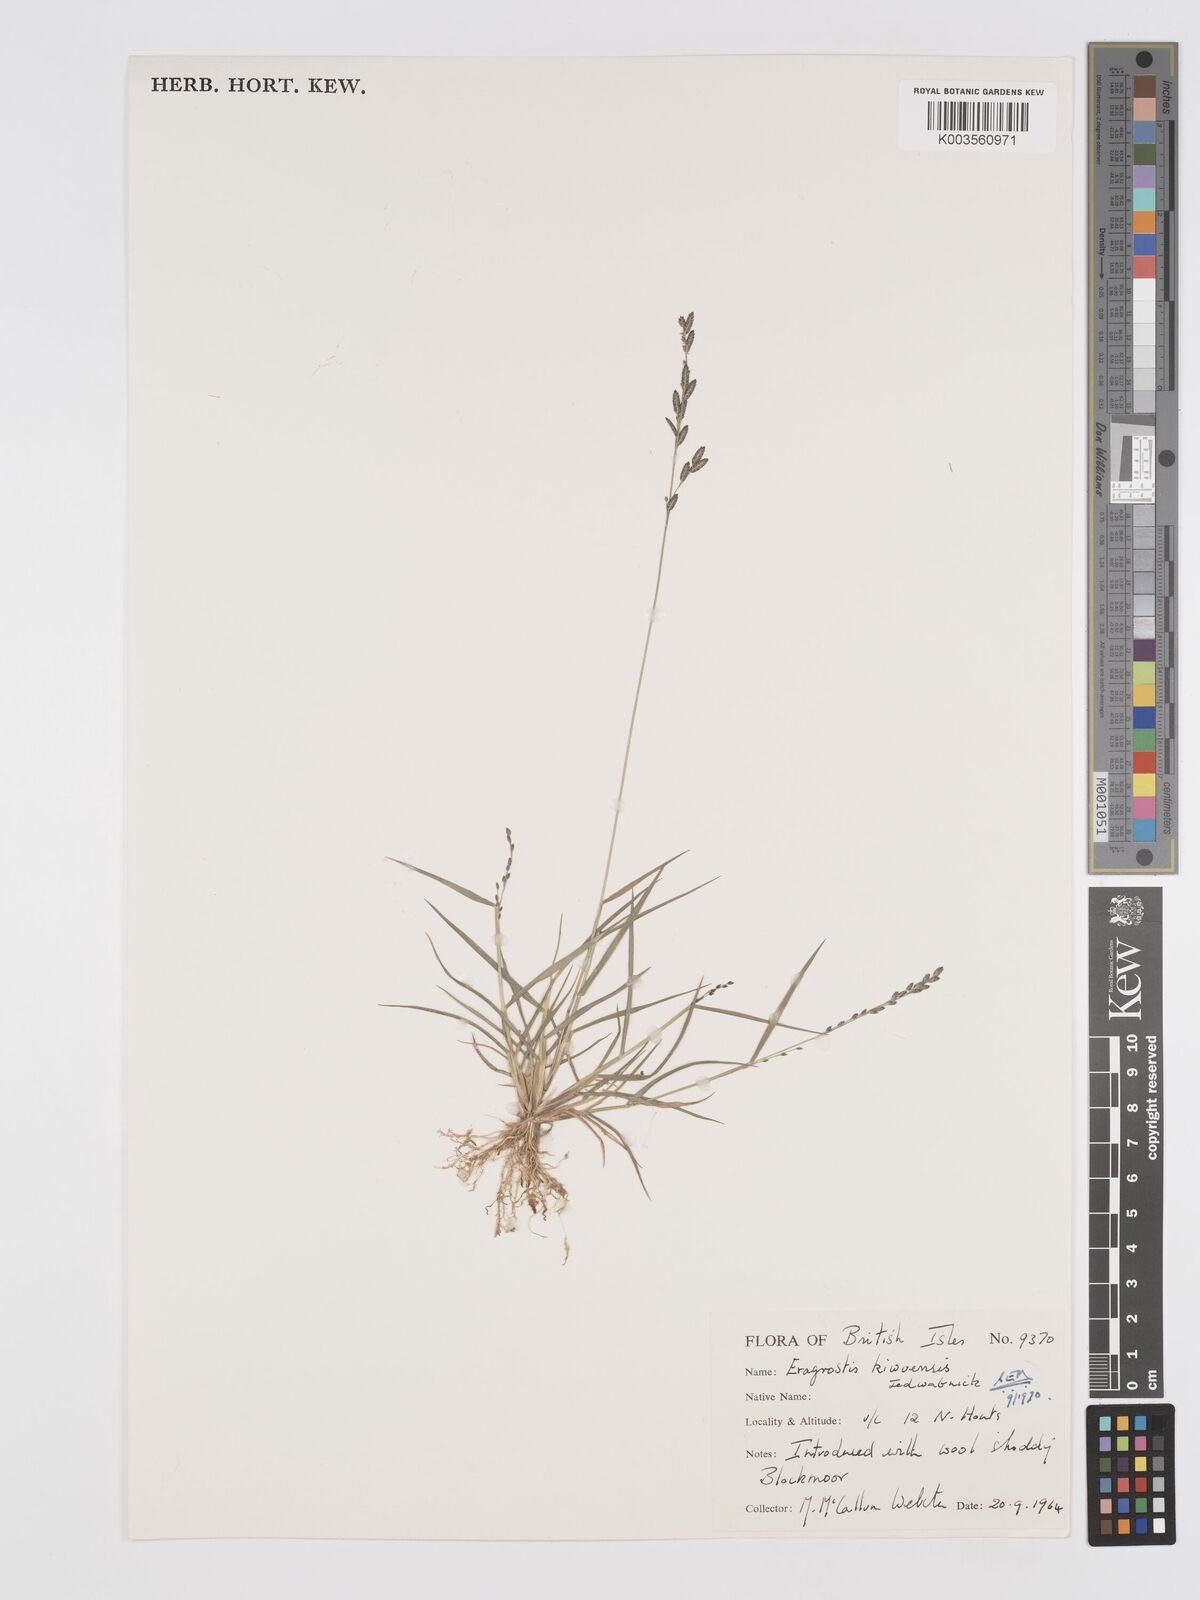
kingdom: Plantae
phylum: Tracheophyta
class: Liliopsida
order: Poales
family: Poaceae
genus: Eragrostis
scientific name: Eragrostis schweinfurthii
